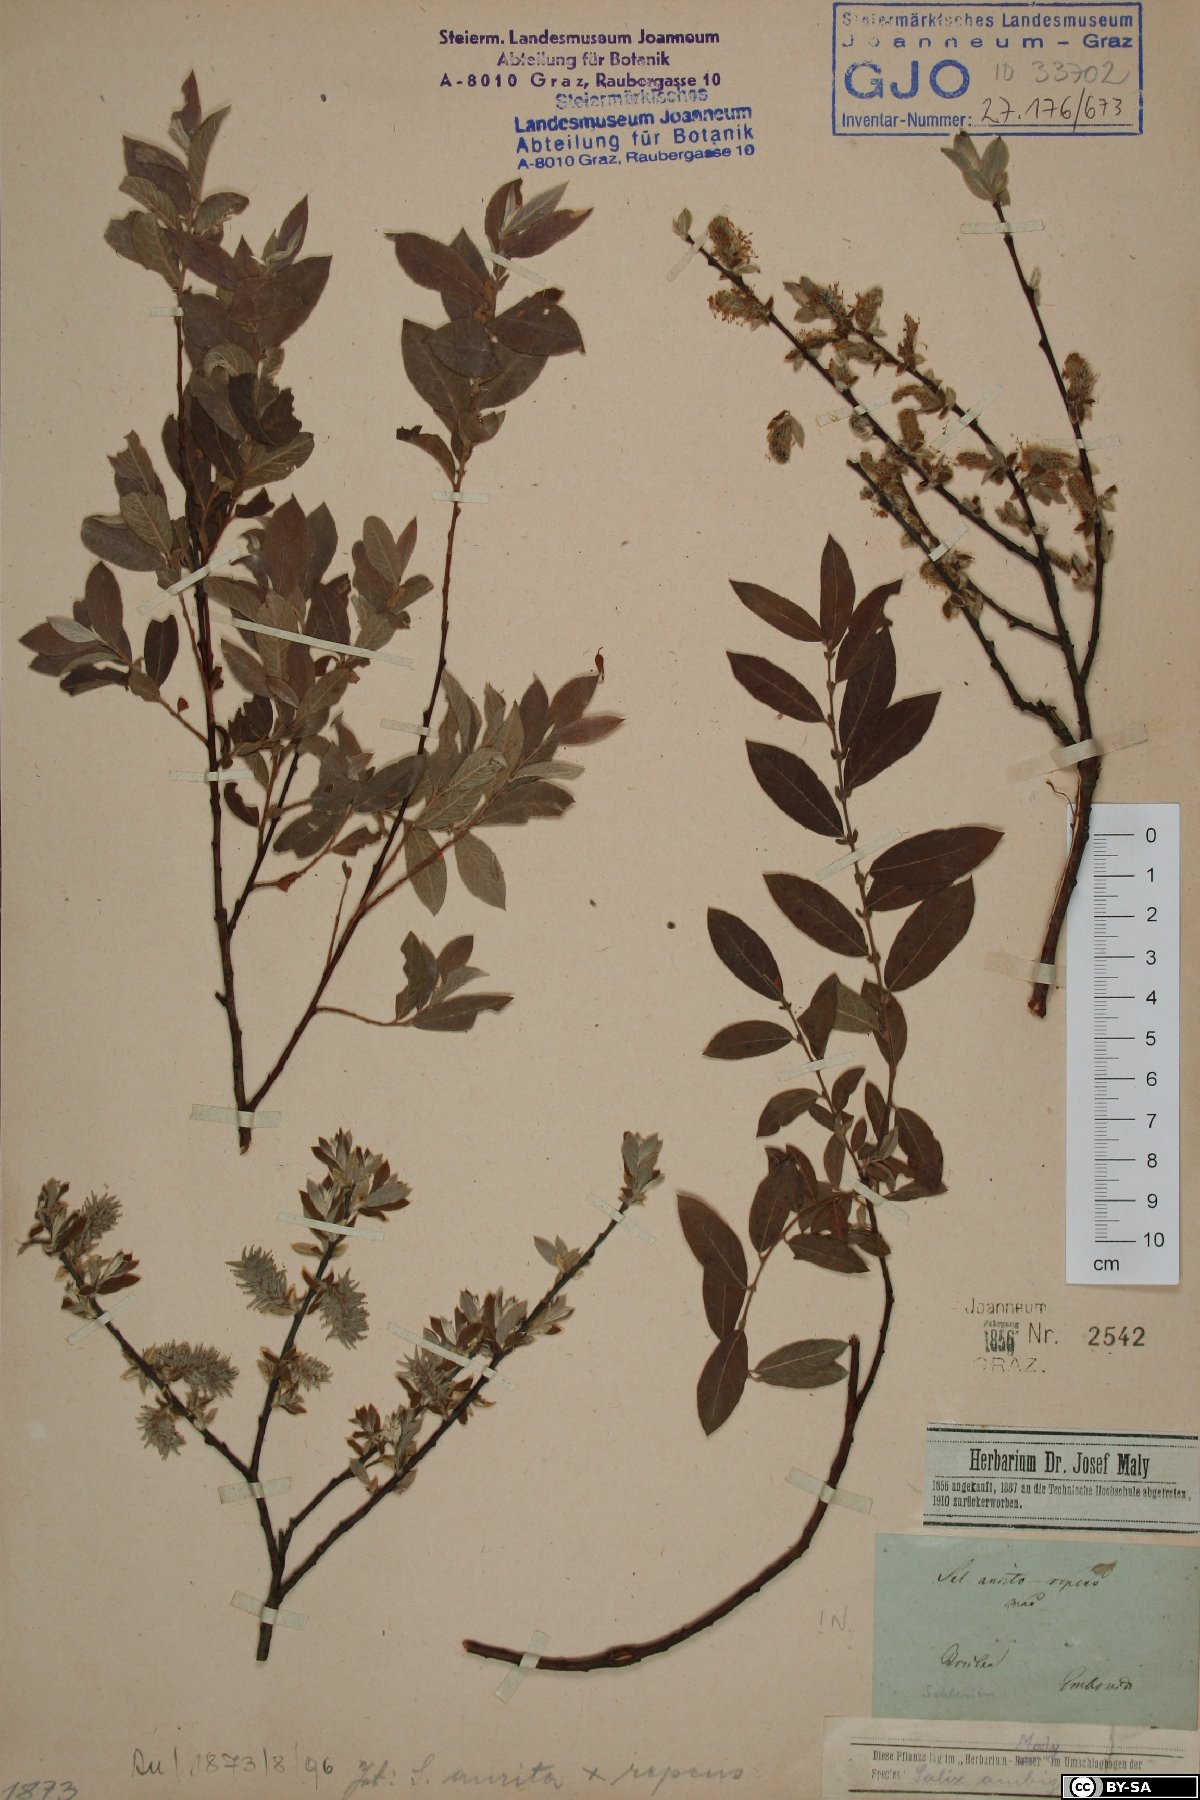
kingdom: Plantae
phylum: Tracheophyta
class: Magnoliopsida
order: Malpighiales
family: Salicaceae
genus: Salix
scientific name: Salix aurita
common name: Eared willow
